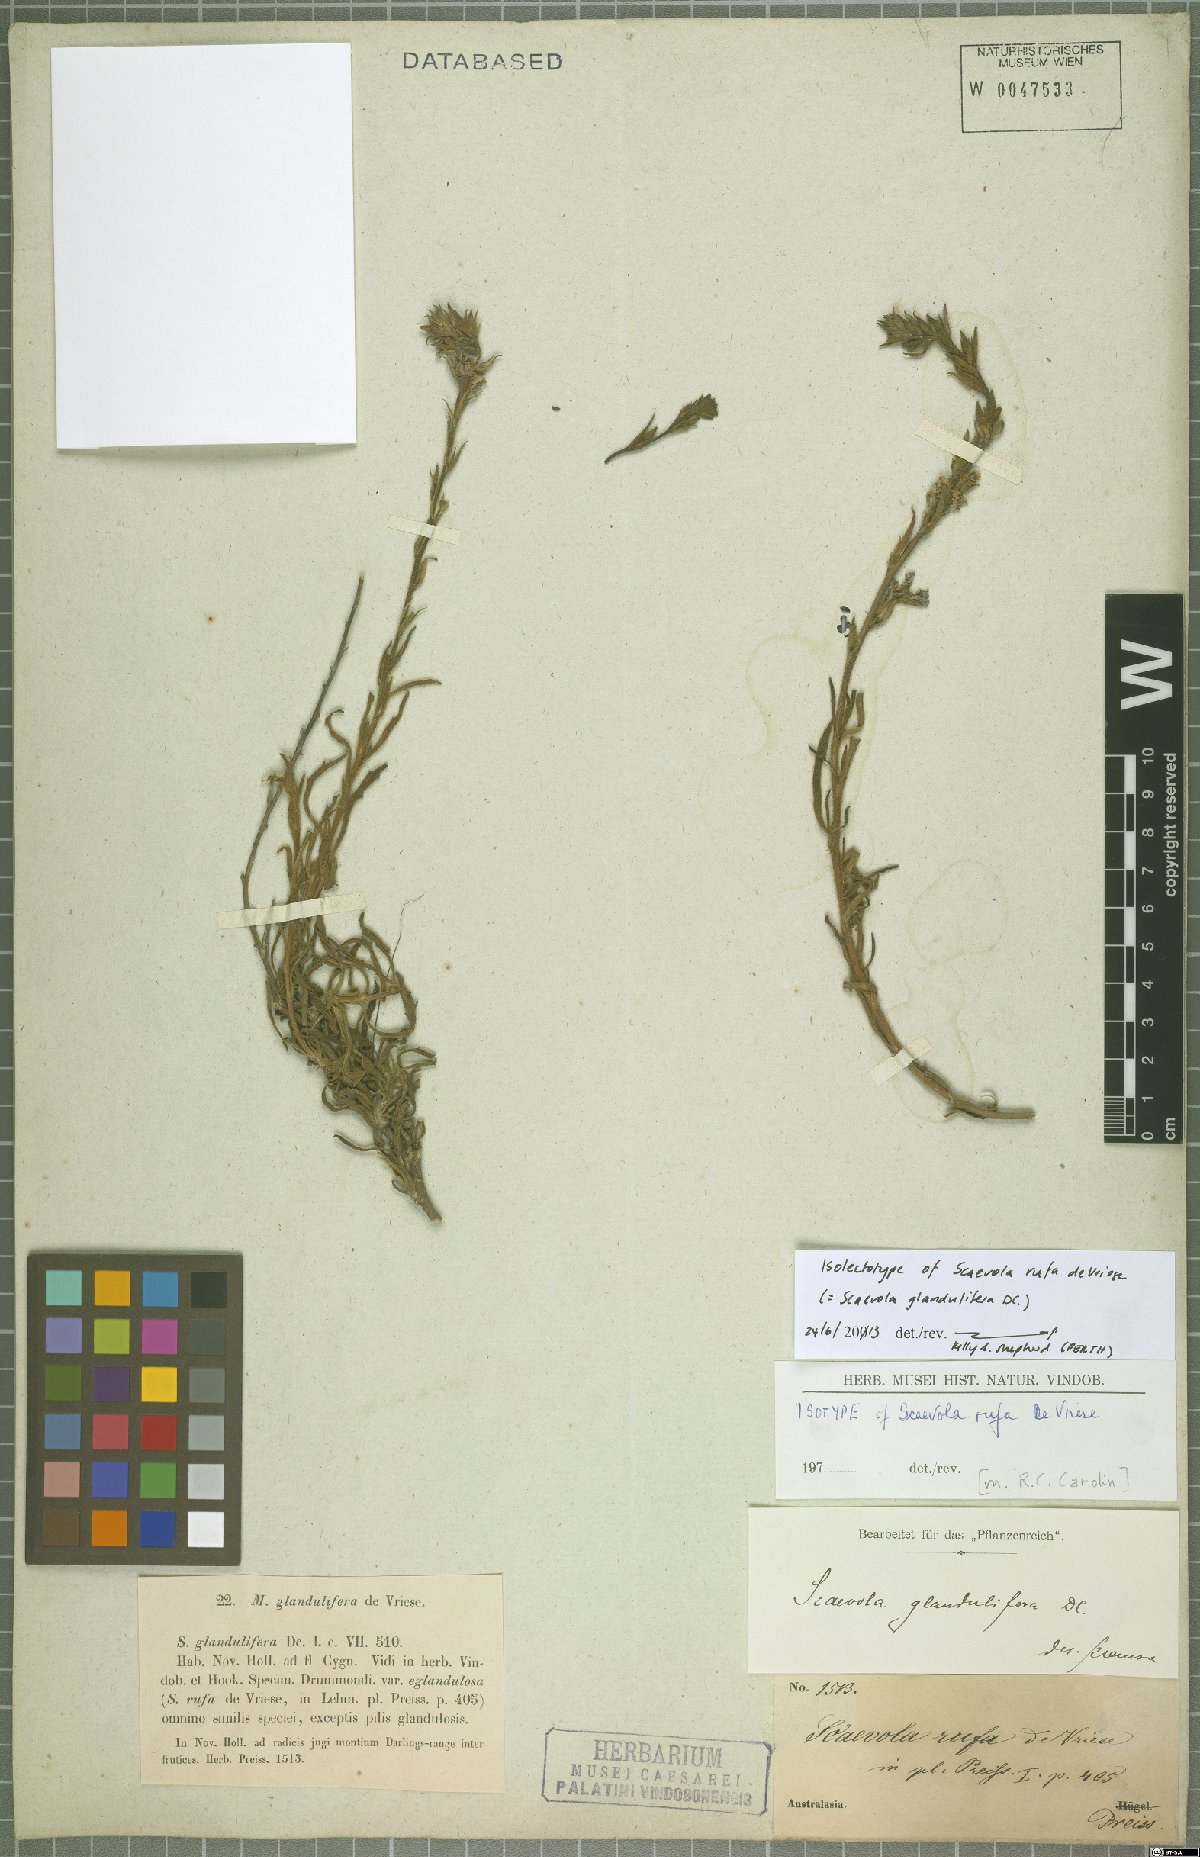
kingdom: Plantae
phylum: Tracheophyta
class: Magnoliopsida
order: Asterales
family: Goodeniaceae
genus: Scaevola
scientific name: Scaevola glandulifera
